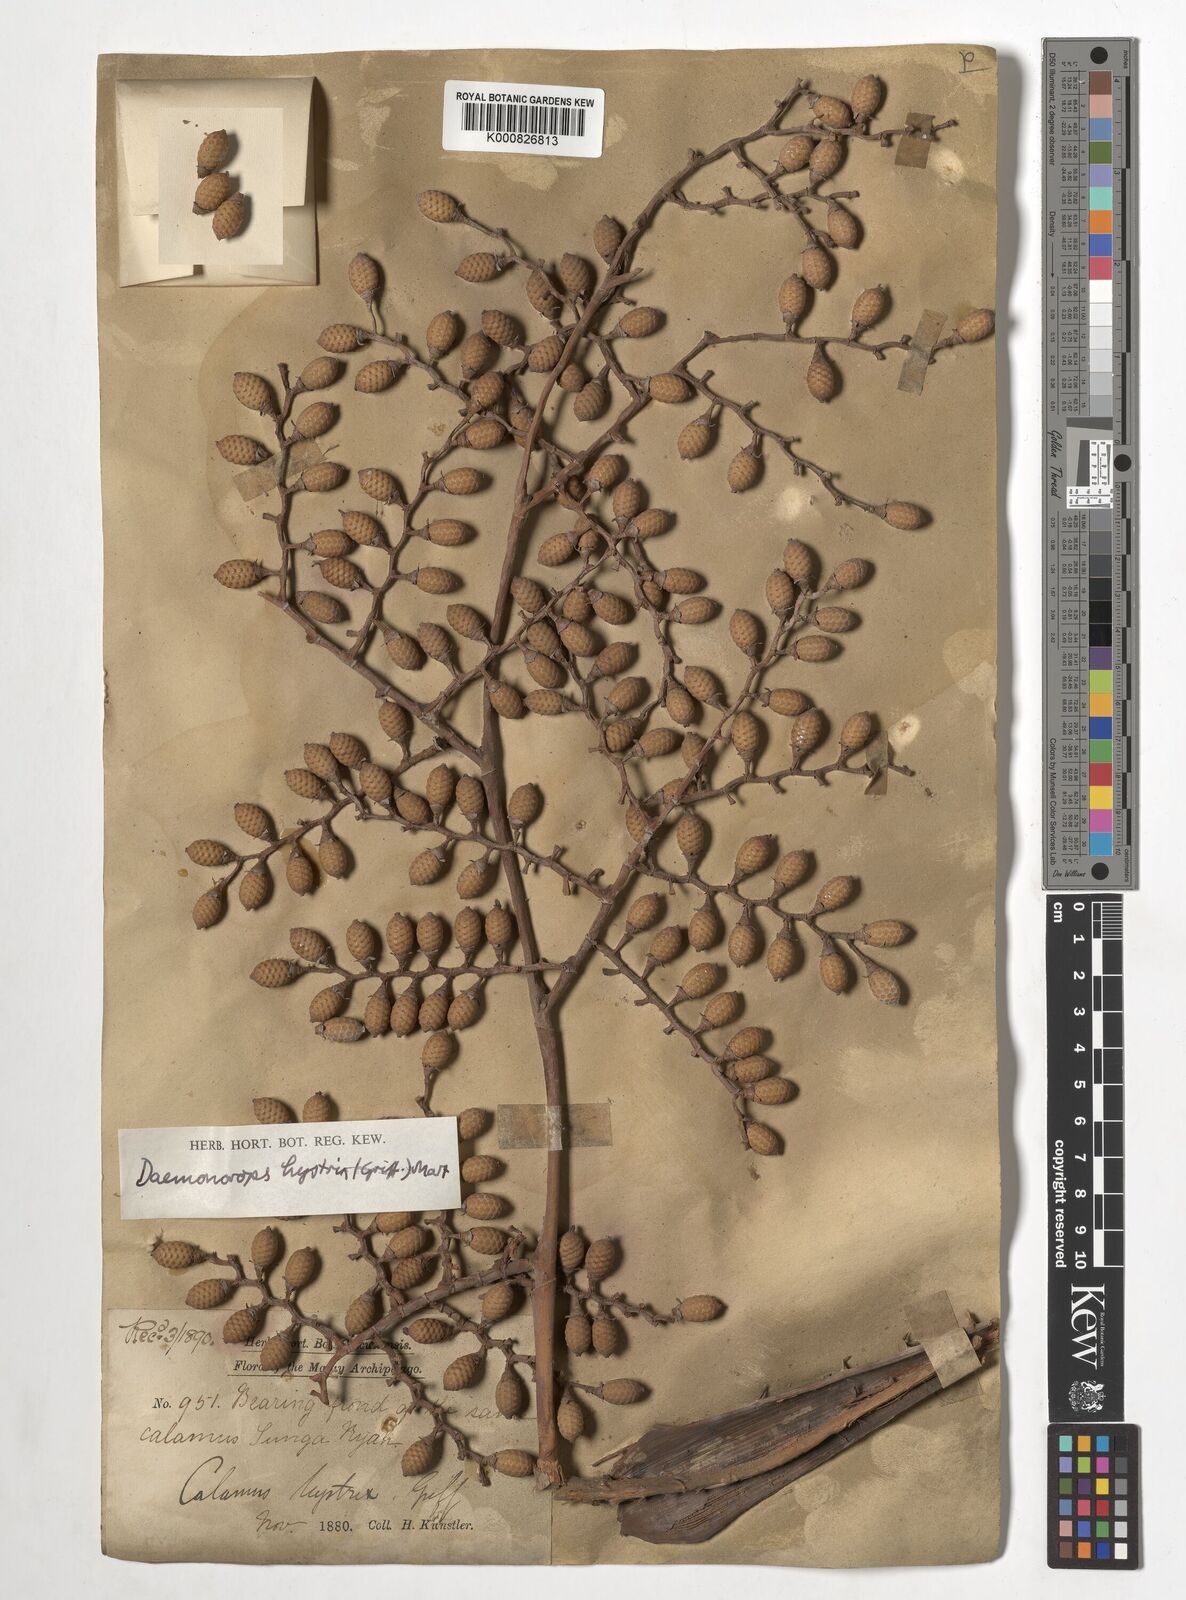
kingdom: Plantae
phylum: Tracheophyta
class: Liliopsida
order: Arecales
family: Arecaceae
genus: Calamus
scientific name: Calamus hirsutus
